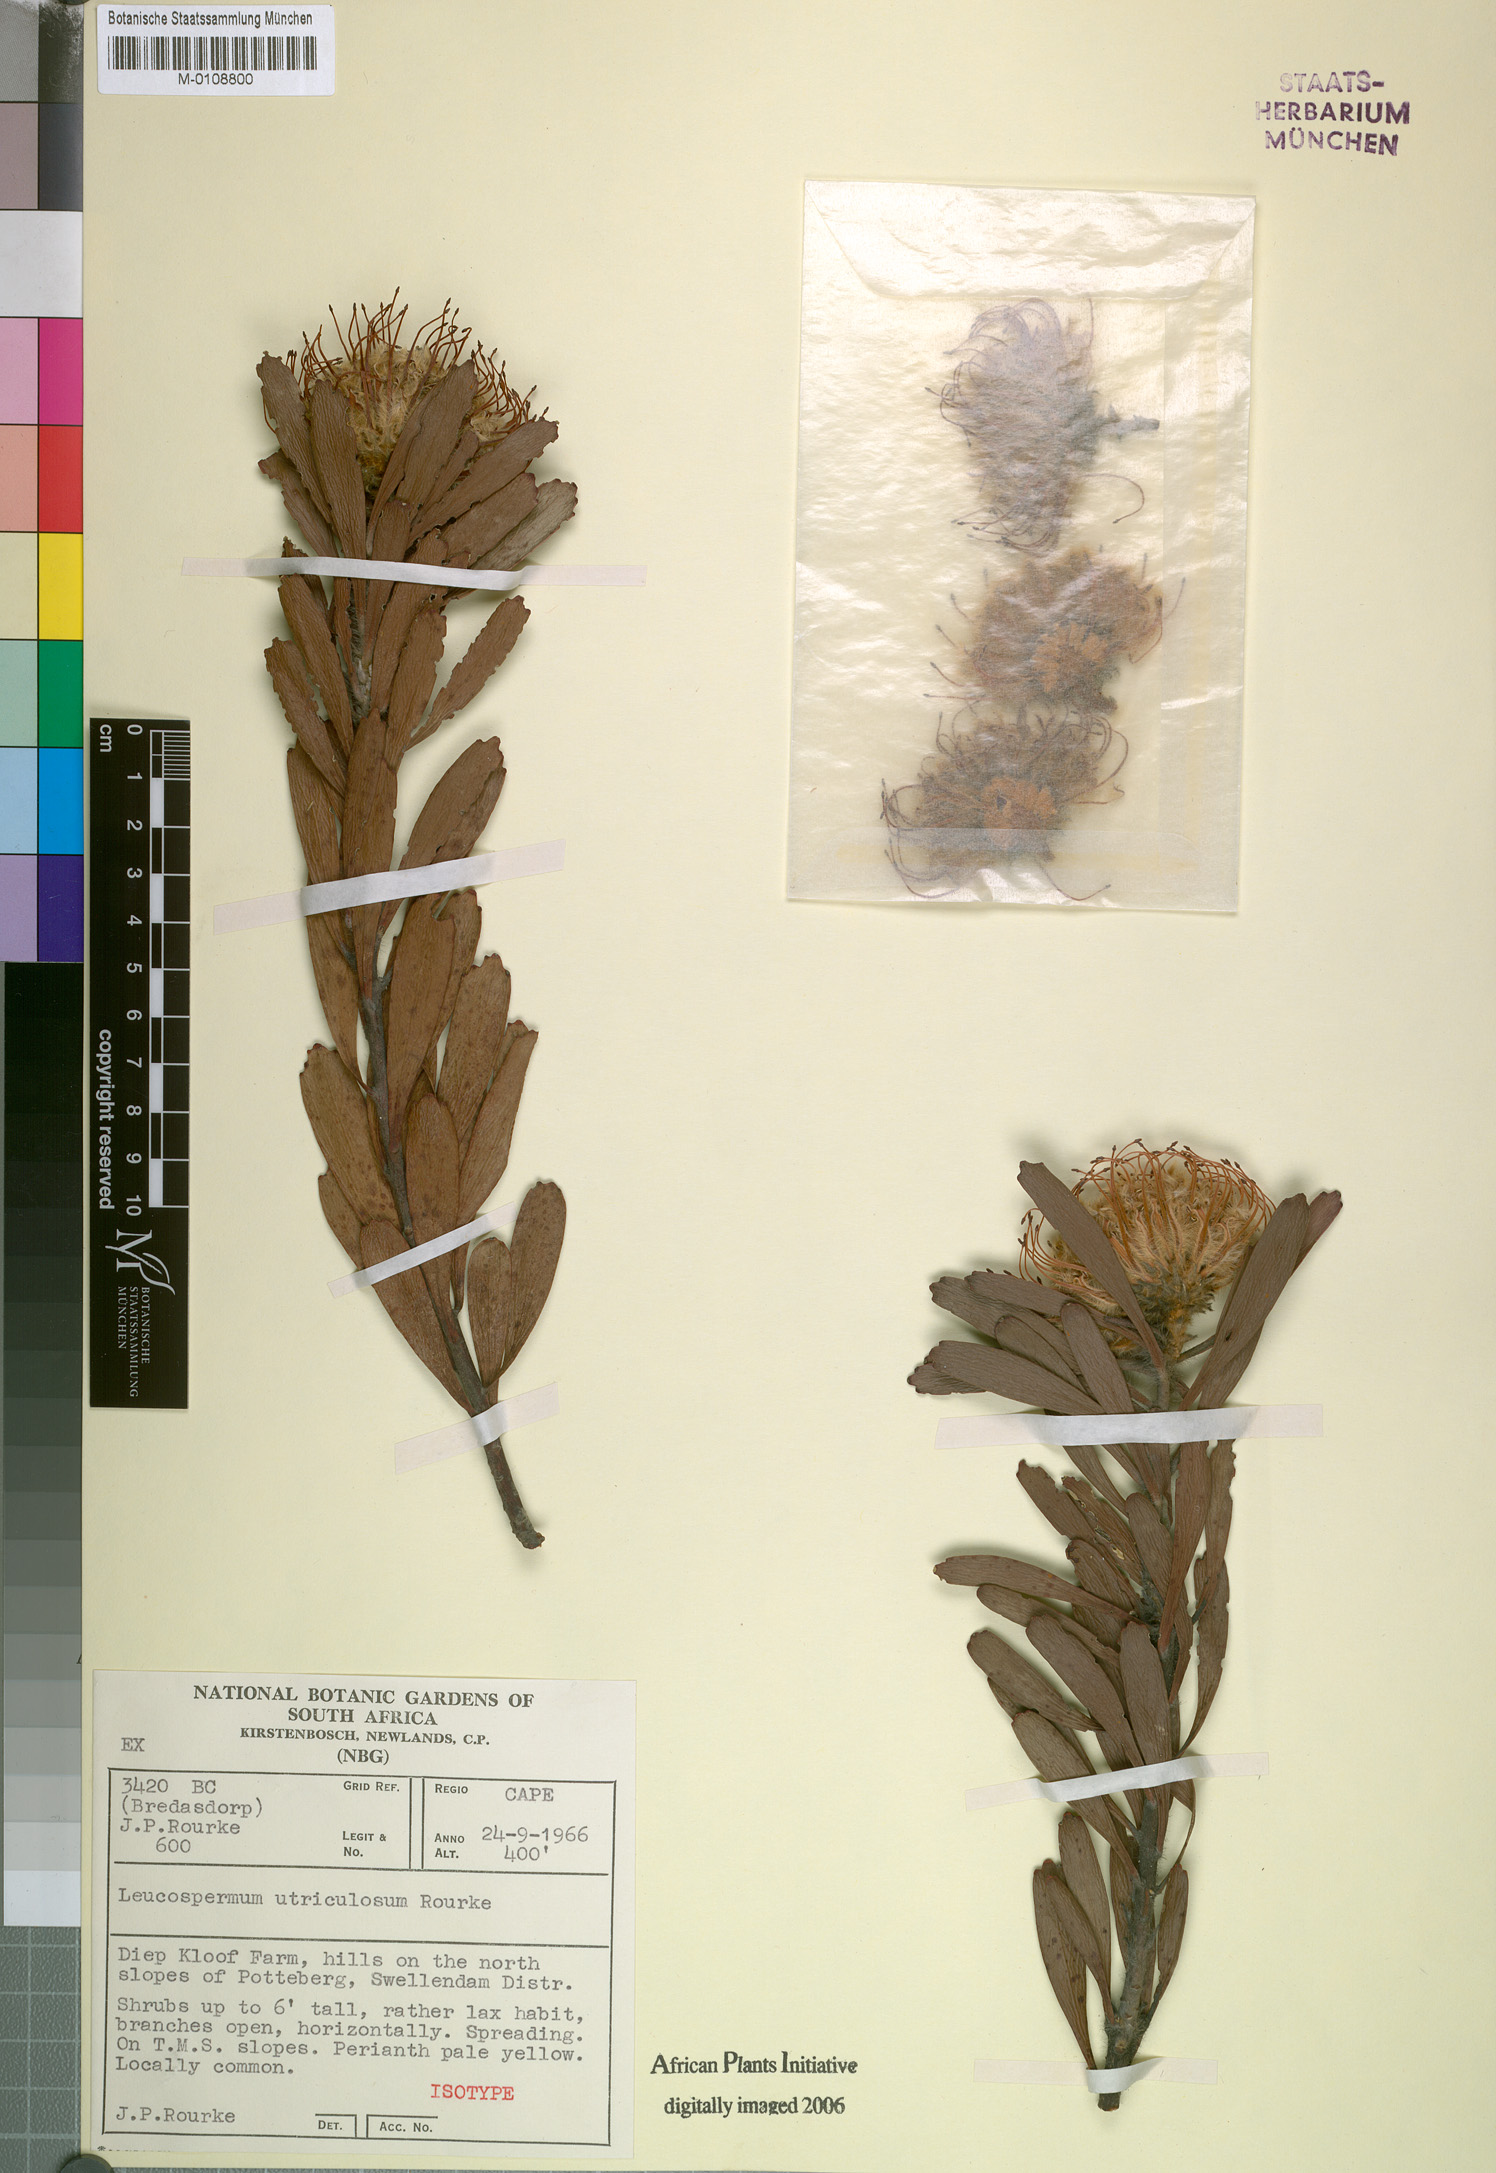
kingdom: Plantae
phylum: Tracheophyta
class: Magnoliopsida
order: Proteales
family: Proteaceae
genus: Leucospermum
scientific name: Leucospermum utriculosum
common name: Breede river pincushion
